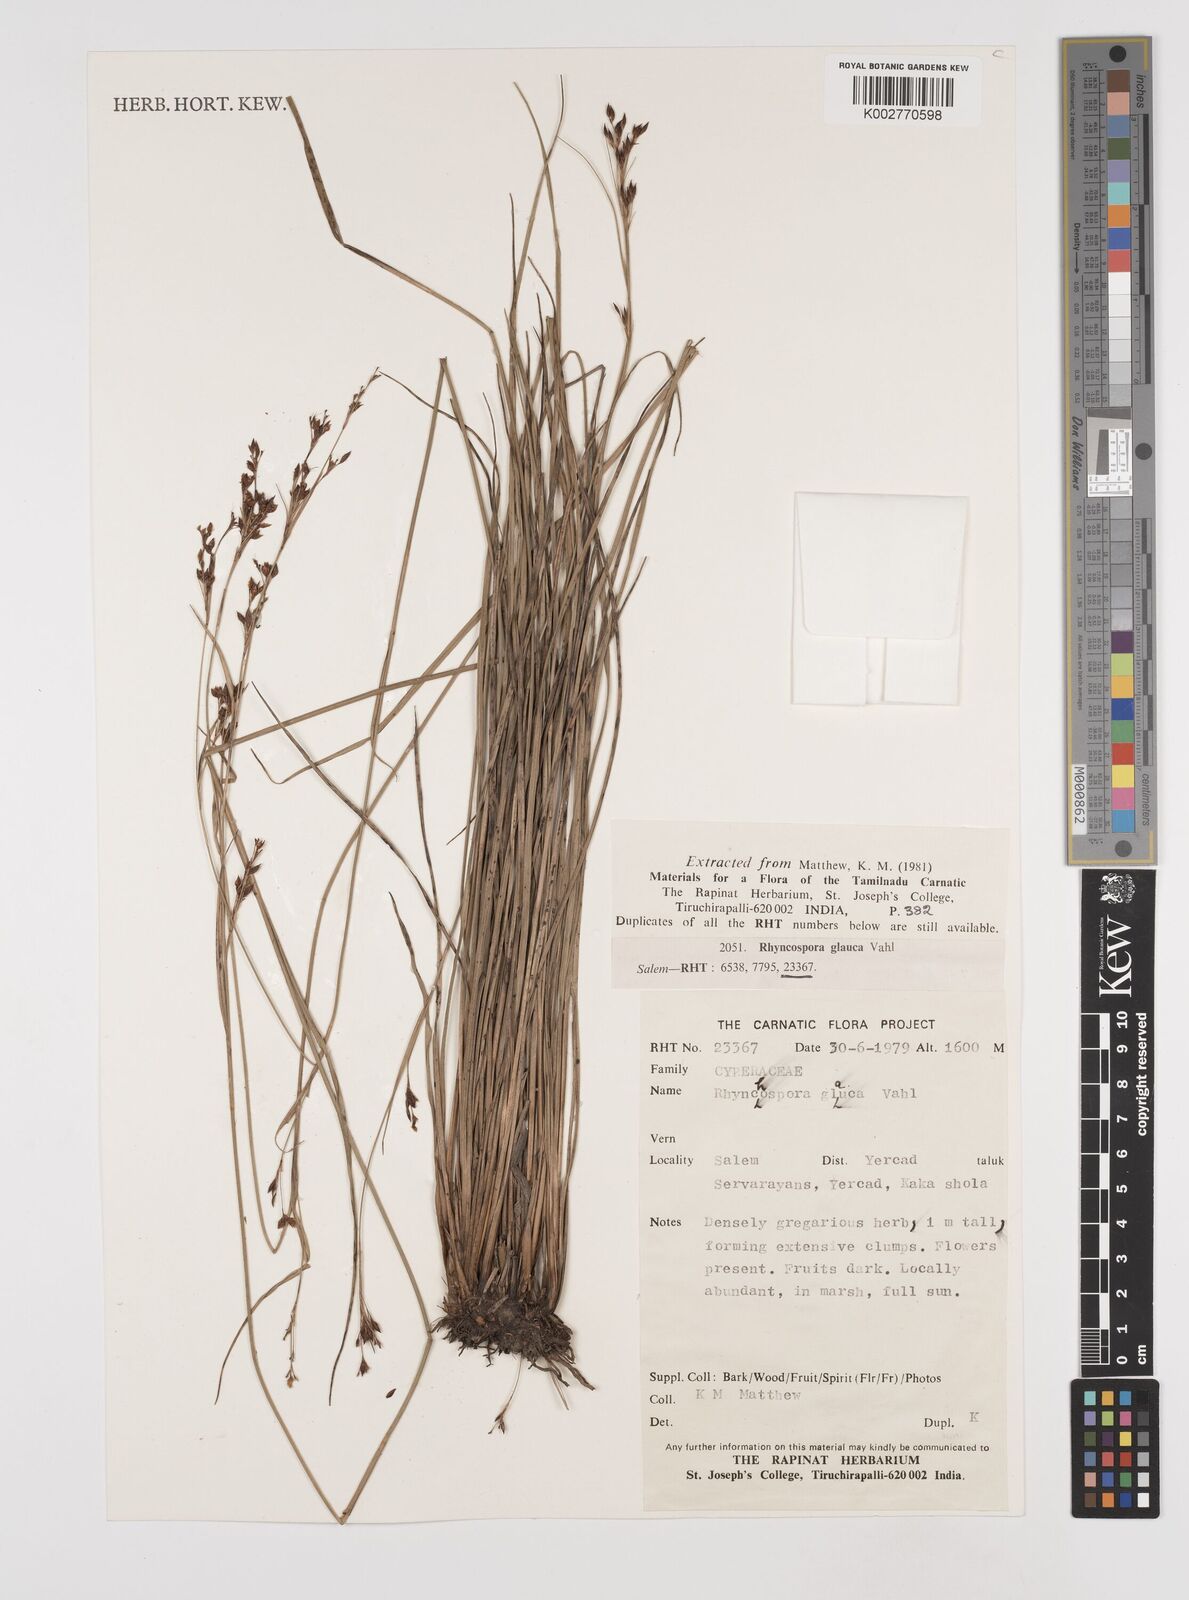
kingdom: Plantae
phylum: Tracheophyta
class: Liliopsida
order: Poales
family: Cyperaceae
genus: Rhynchospora
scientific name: Rhynchospora rugosa
